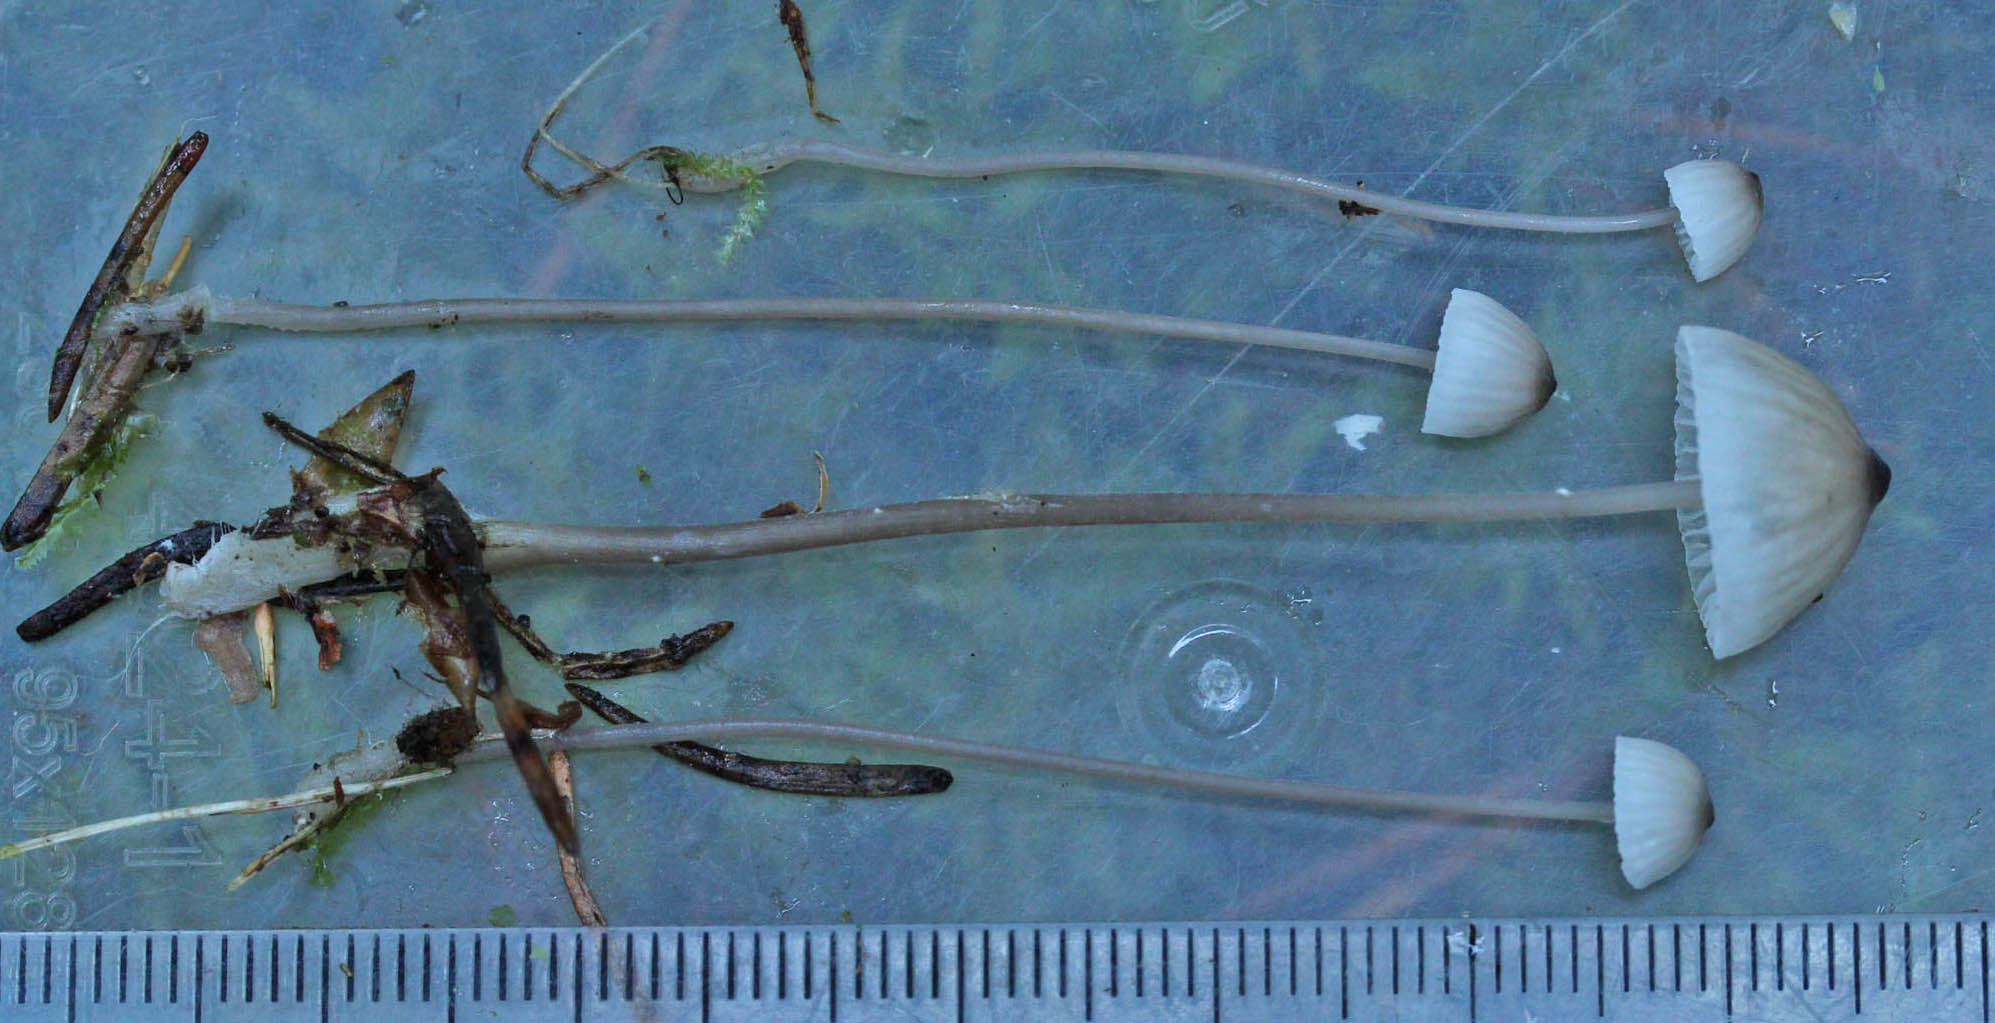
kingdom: Fungi
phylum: Basidiomycota
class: Agaricomycetes
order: Agaricales
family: Mycenaceae
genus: Mycena
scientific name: Mycena galopus
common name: hvidmælket huesvamp
